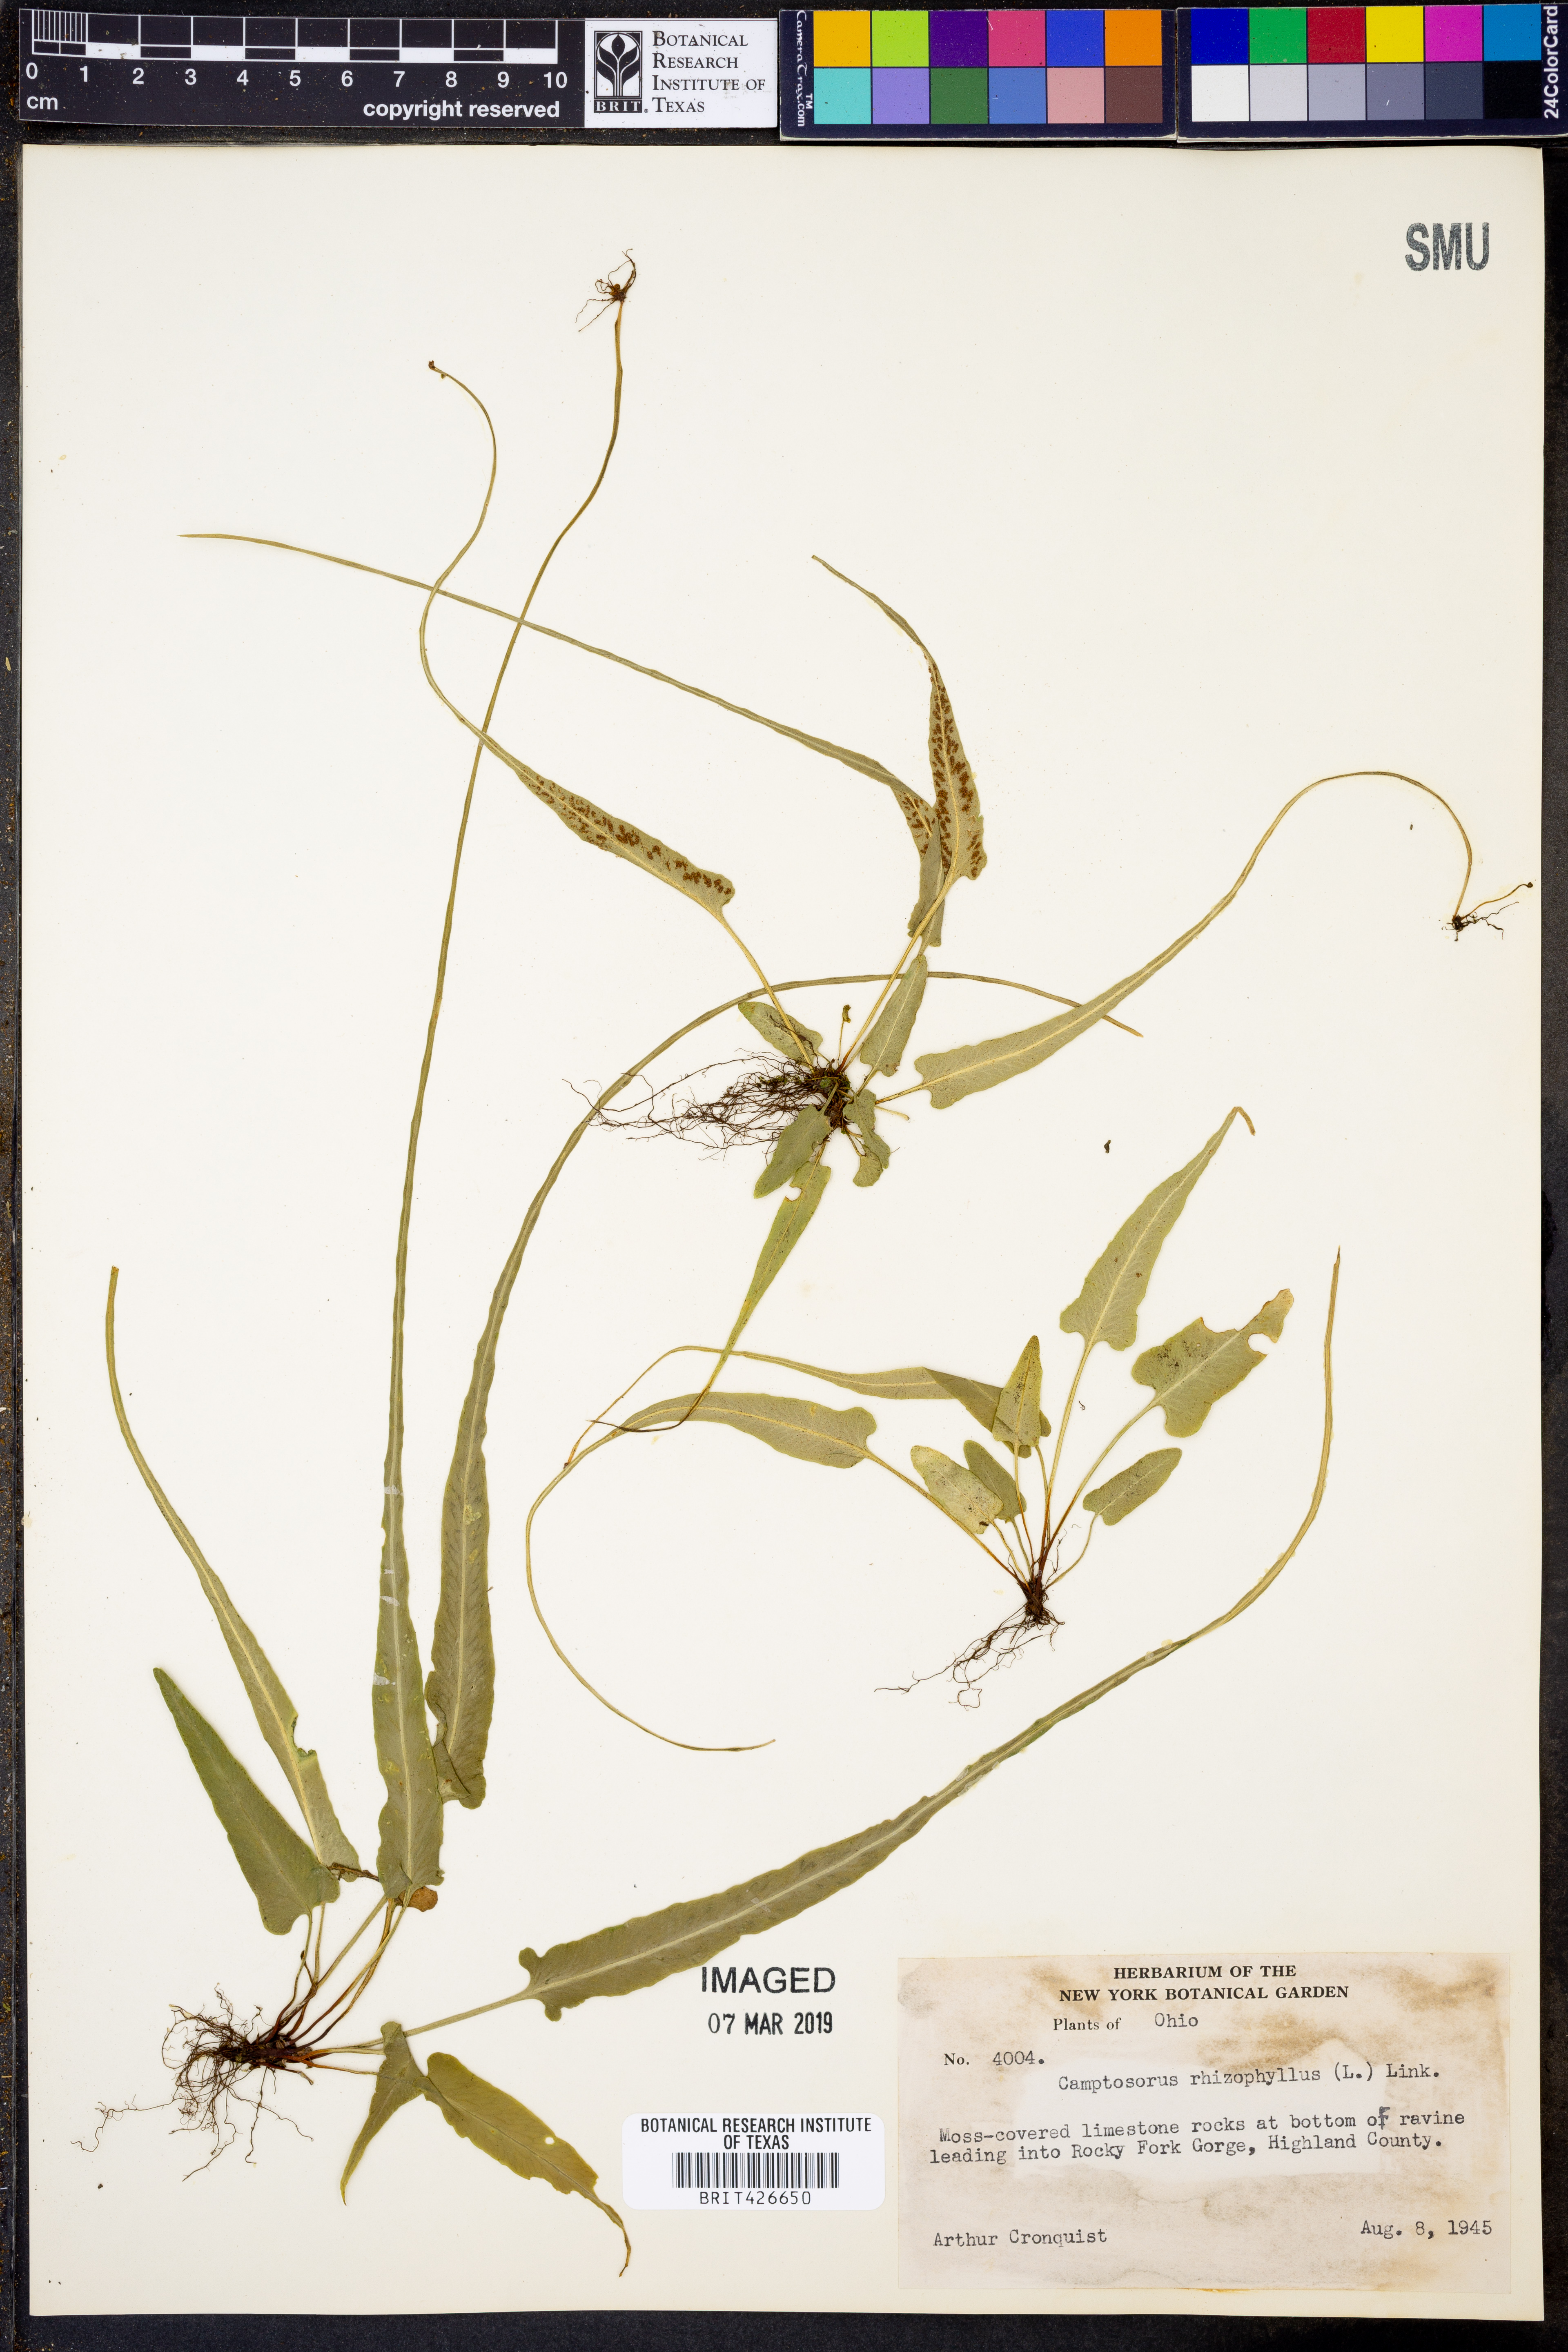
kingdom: Plantae
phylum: Tracheophyta
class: Polypodiopsida
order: Polypodiales
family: Aspleniaceae
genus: Asplenium
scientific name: Asplenium rhizophyllum
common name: Walking fern
